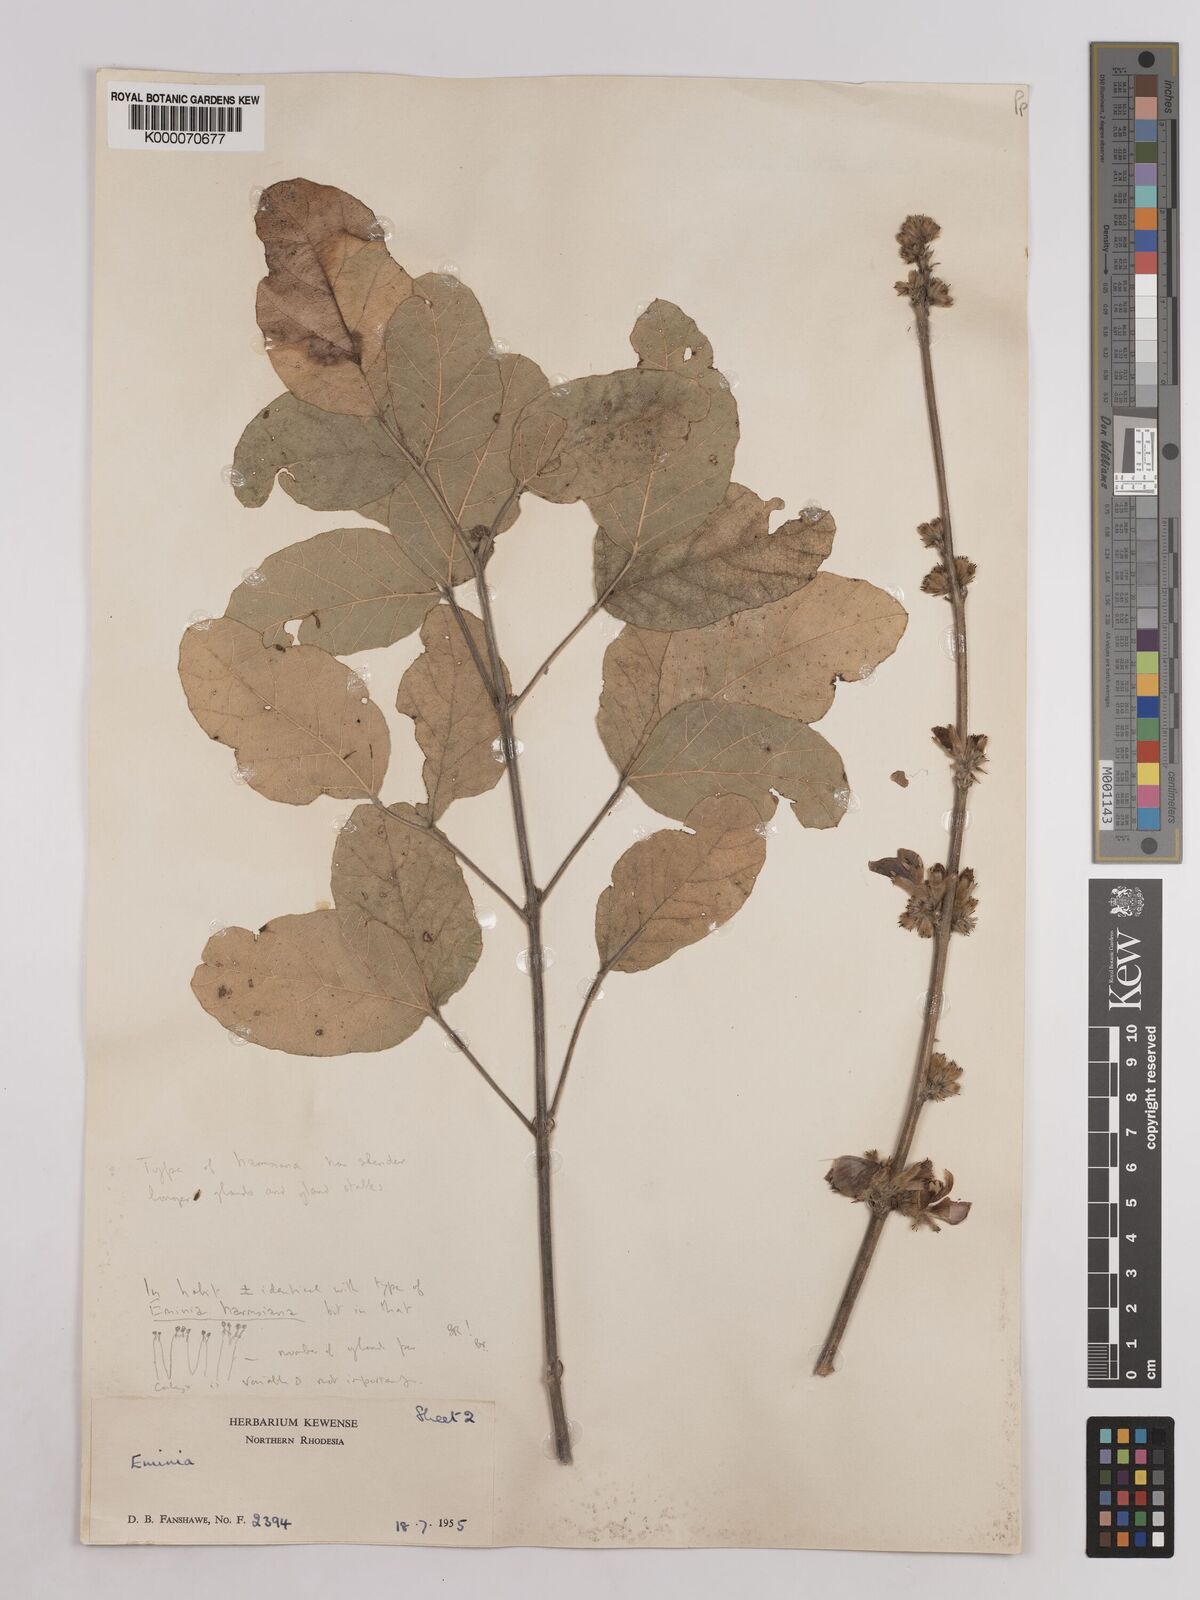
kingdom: Plantae
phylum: Tracheophyta
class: Magnoliopsida
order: Fabales
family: Fabaceae
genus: Eminia
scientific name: Eminia harmsiana
